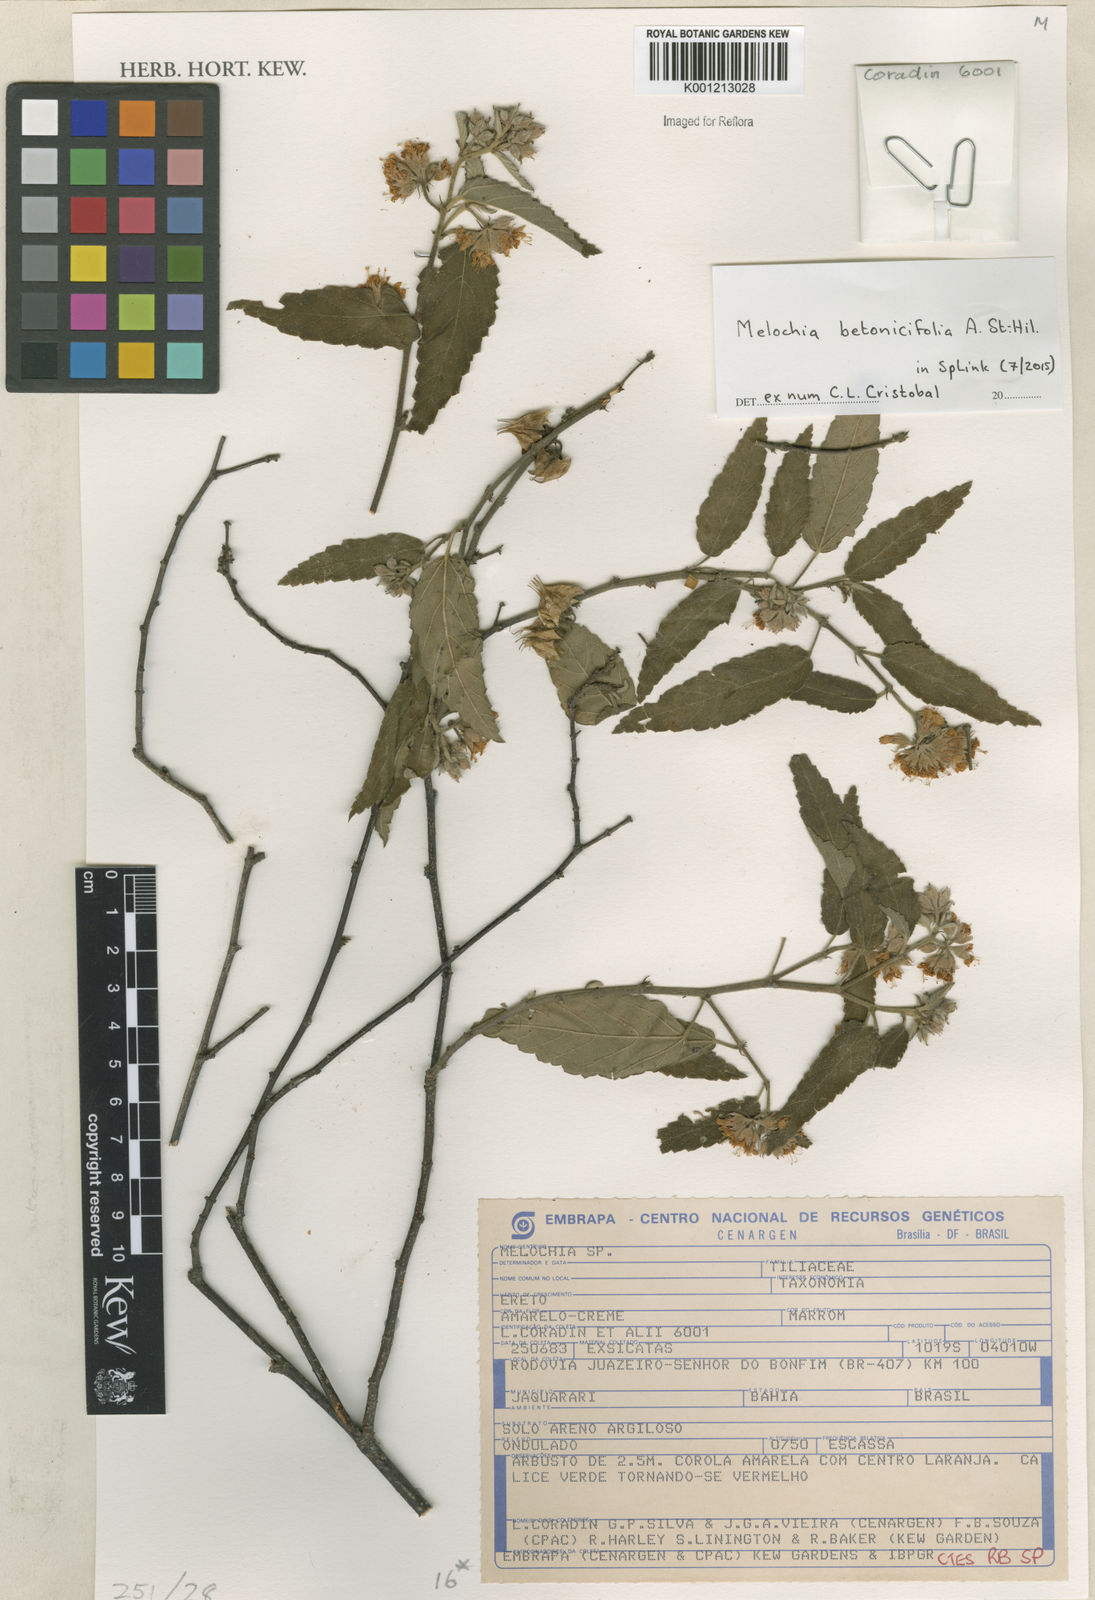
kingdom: Plantae
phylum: Tracheophyta
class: Magnoliopsida
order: Malvales
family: Malvaceae
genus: Melochia
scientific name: Melochia
